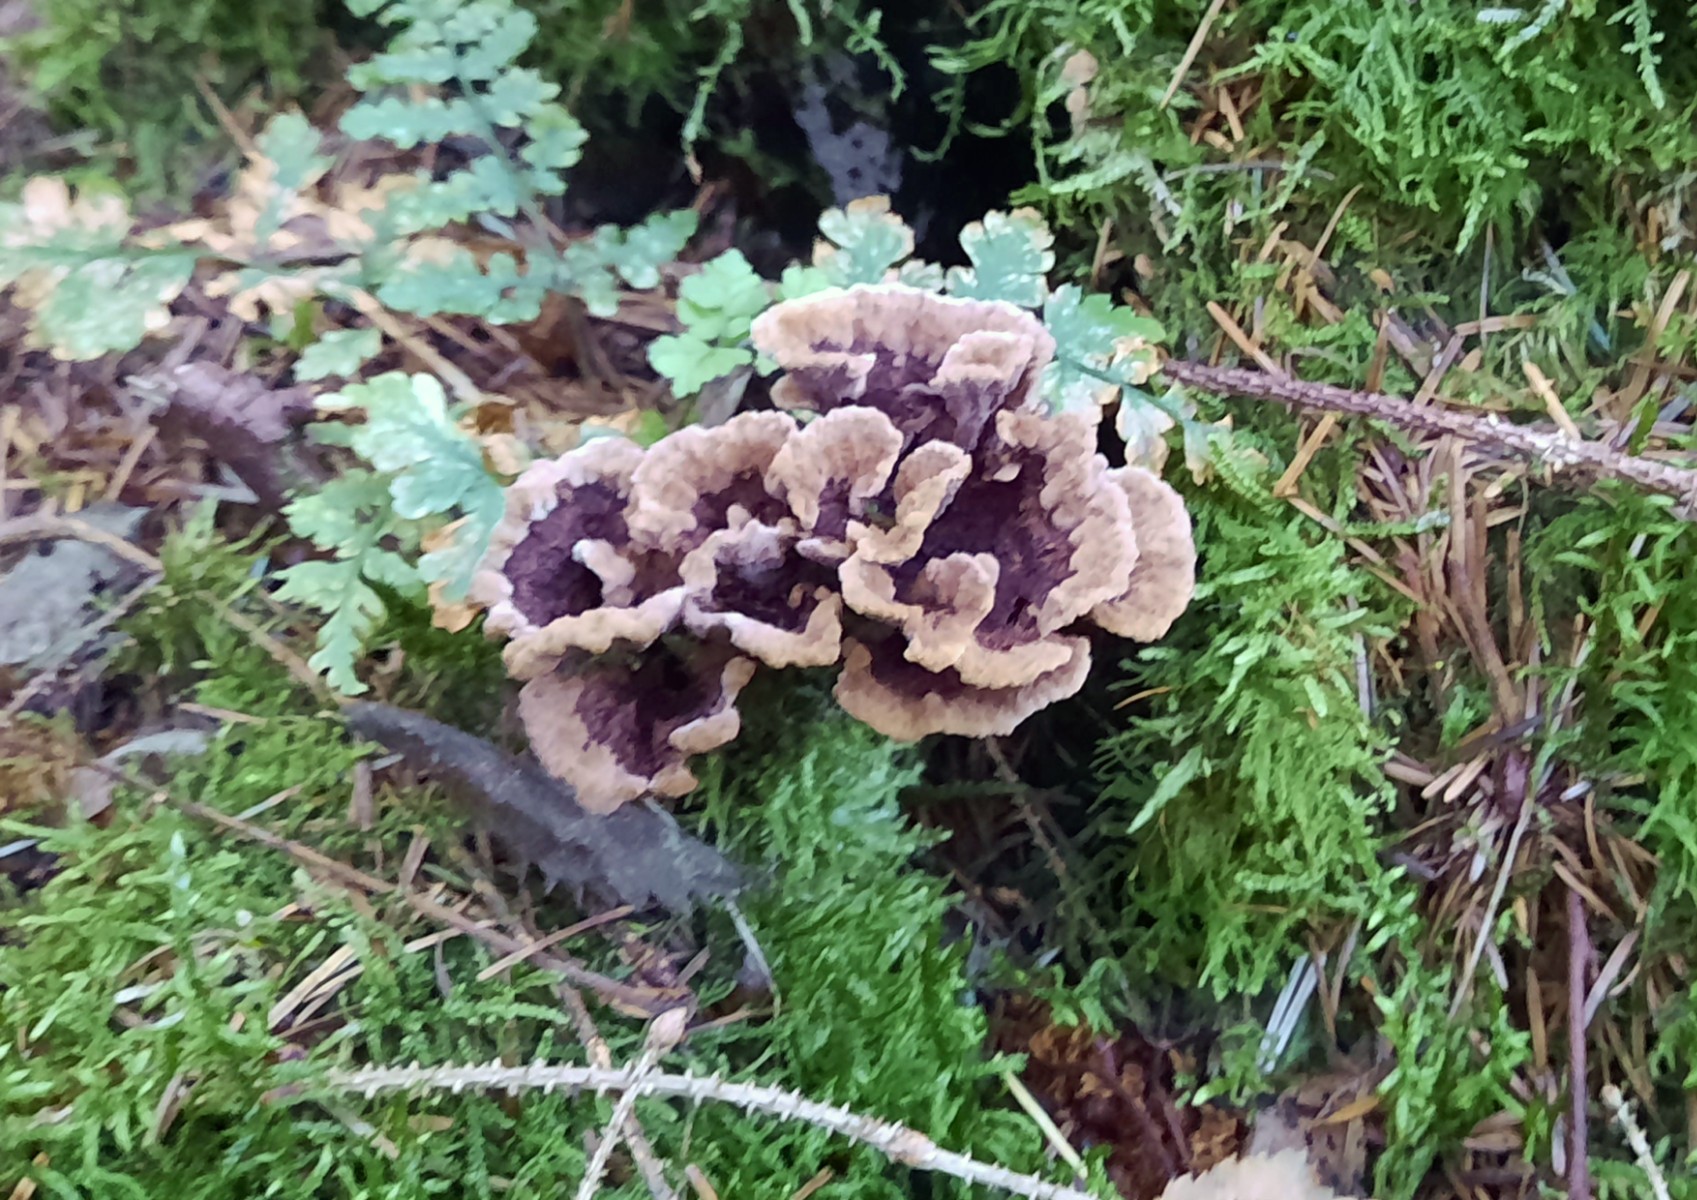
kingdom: Fungi
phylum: Basidiomycota
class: Agaricomycetes
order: Thelephorales
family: Thelephoraceae
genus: Thelephora
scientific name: Thelephora terrestris
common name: fliget frynsesvamp
